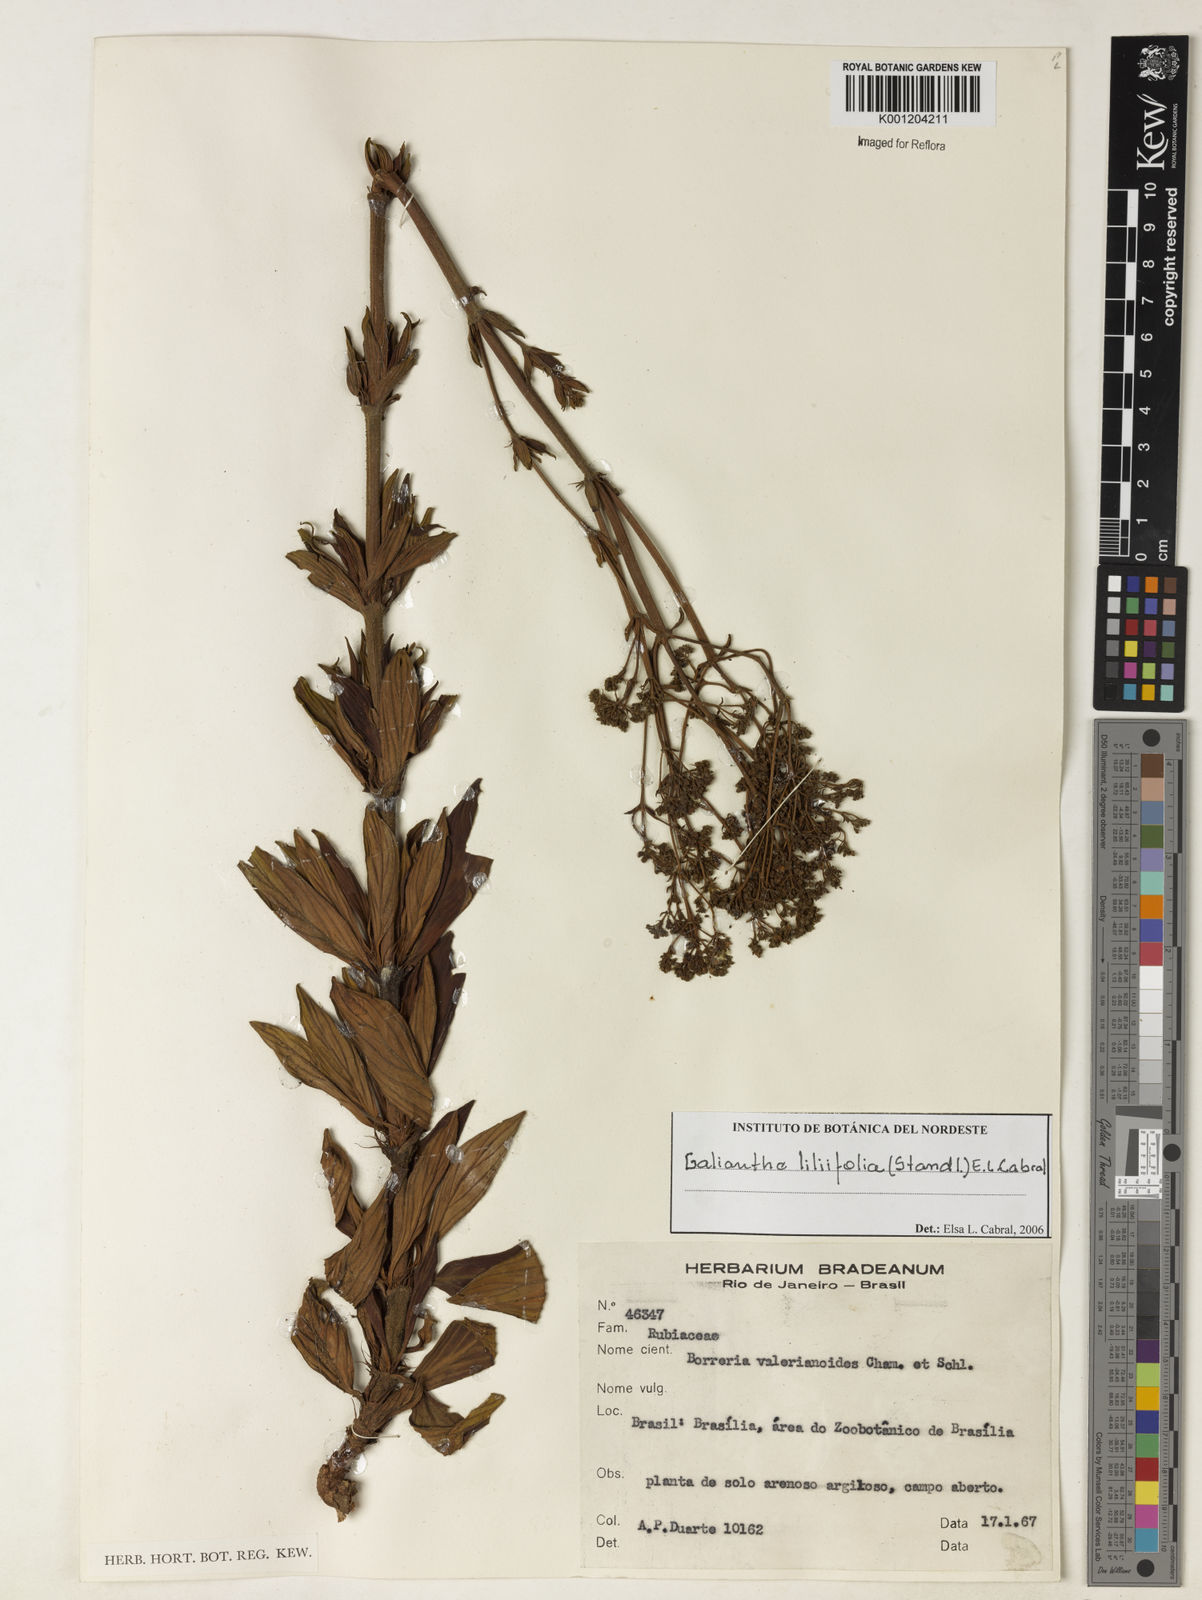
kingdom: Plantae
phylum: Tracheophyta
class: Magnoliopsida
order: Gentianales
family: Rubiaceae
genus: Galianthe
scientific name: Galianthe liliifolia
